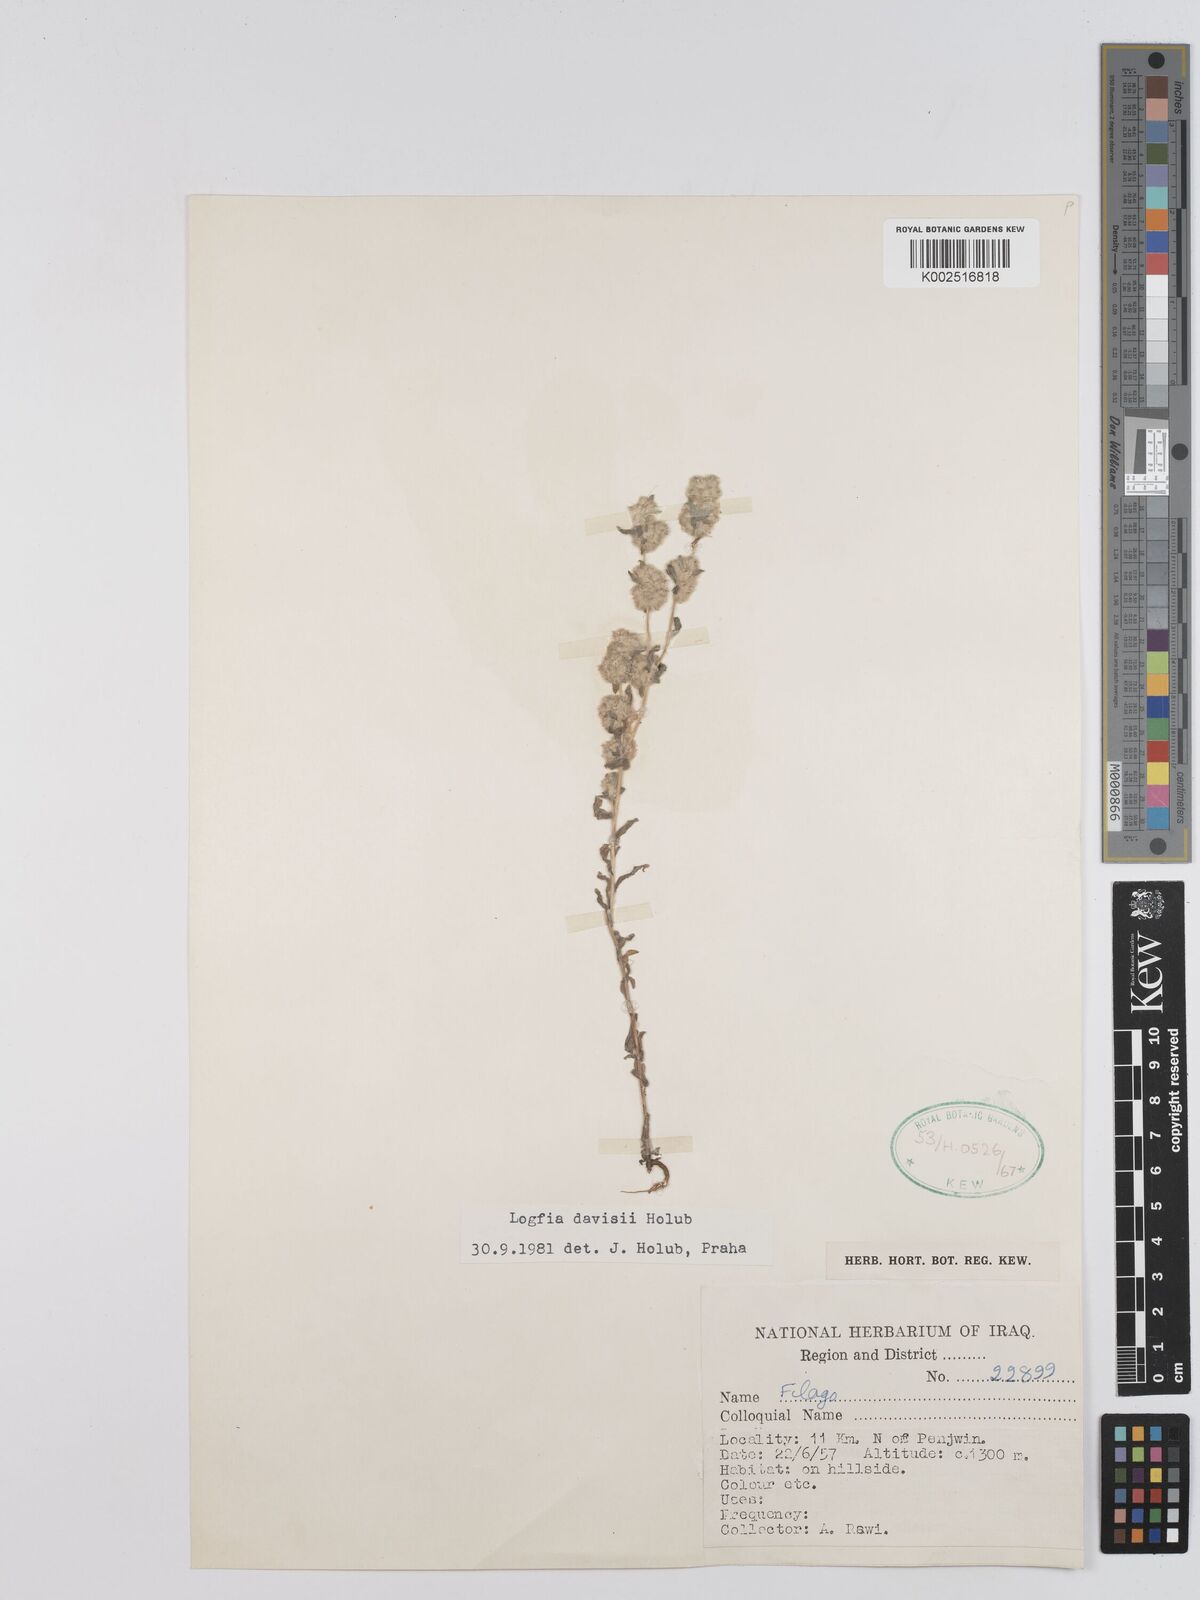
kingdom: Plantae
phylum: Tracheophyta
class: Magnoliopsida
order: Asterales
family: Asteraceae
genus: Filago
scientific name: Filago arvensis
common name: Field cudweed
